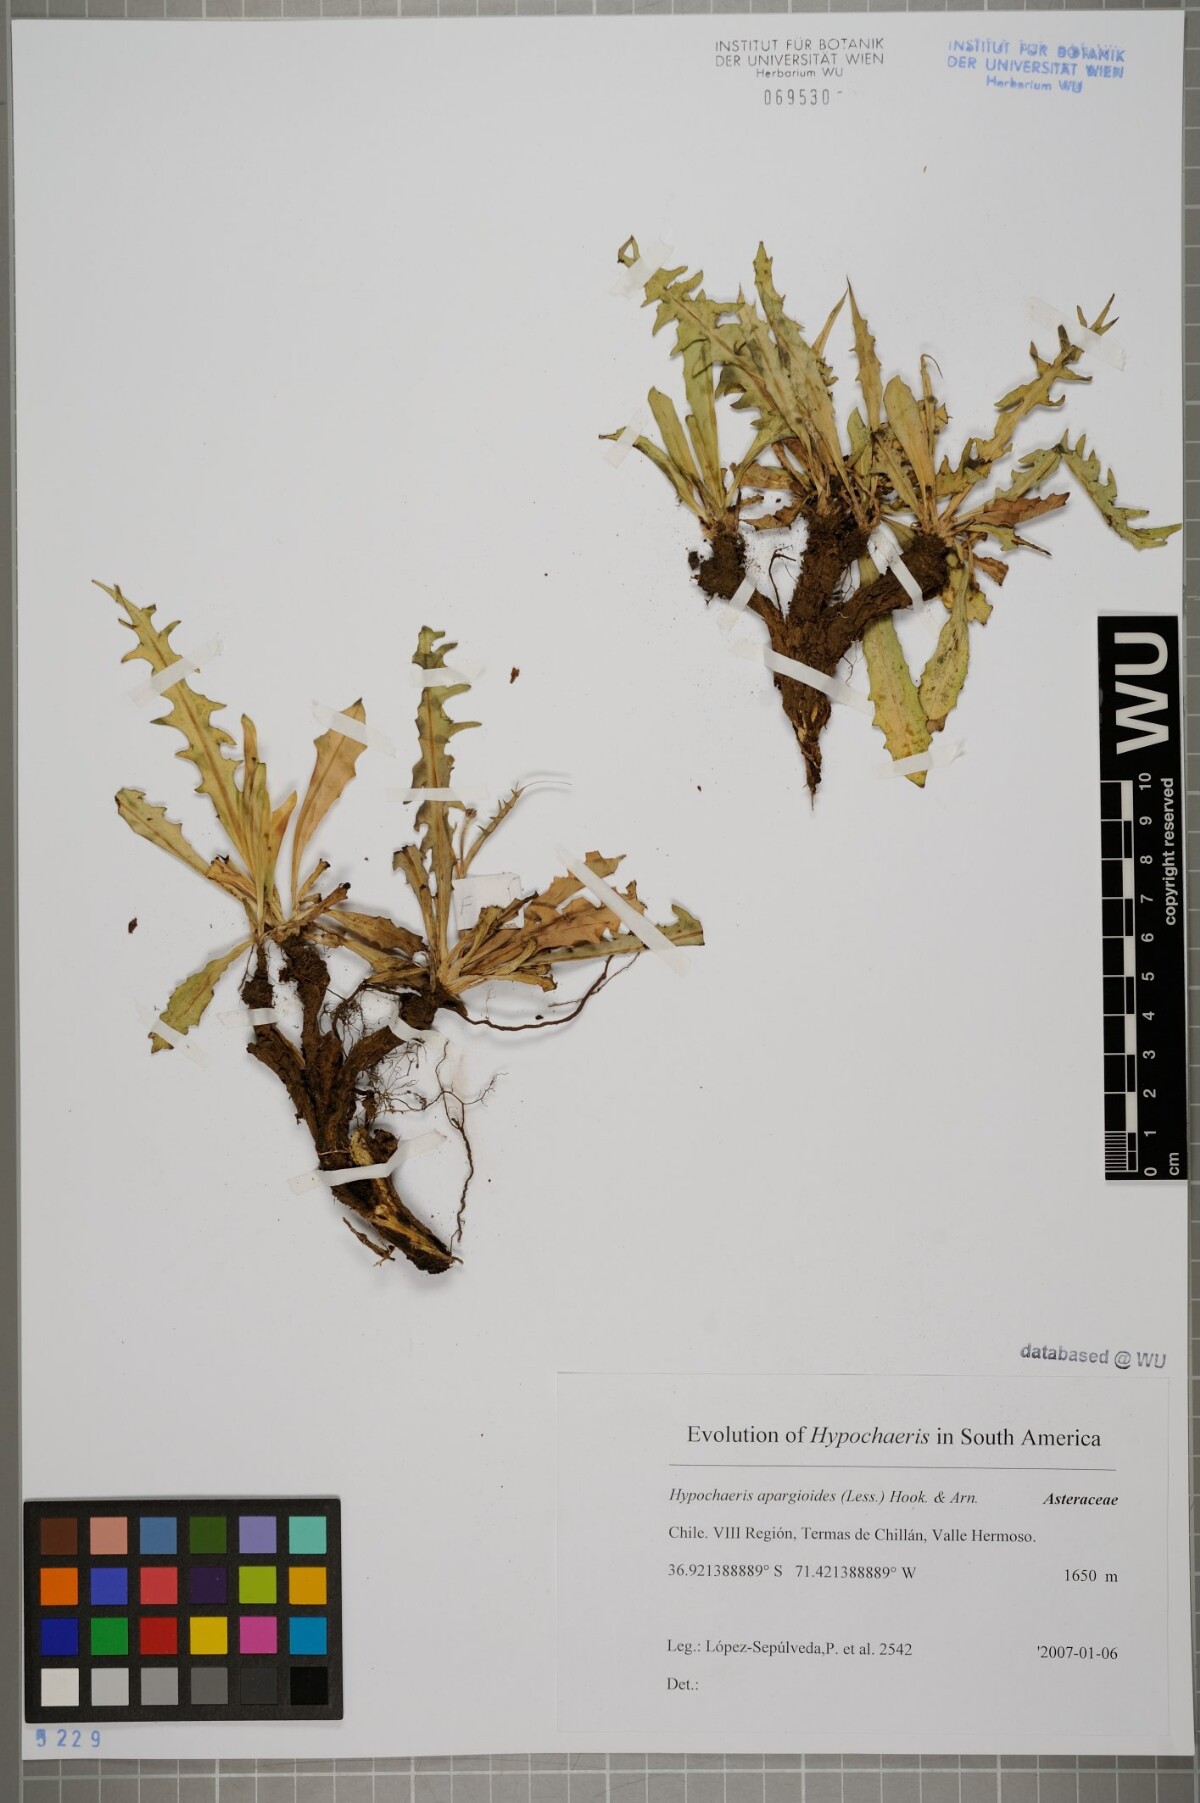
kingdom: Plantae
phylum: Tracheophyta
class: Magnoliopsida
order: Asterales
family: Asteraceae
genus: Hypochaeris
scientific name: Hypochaeris apargioides
